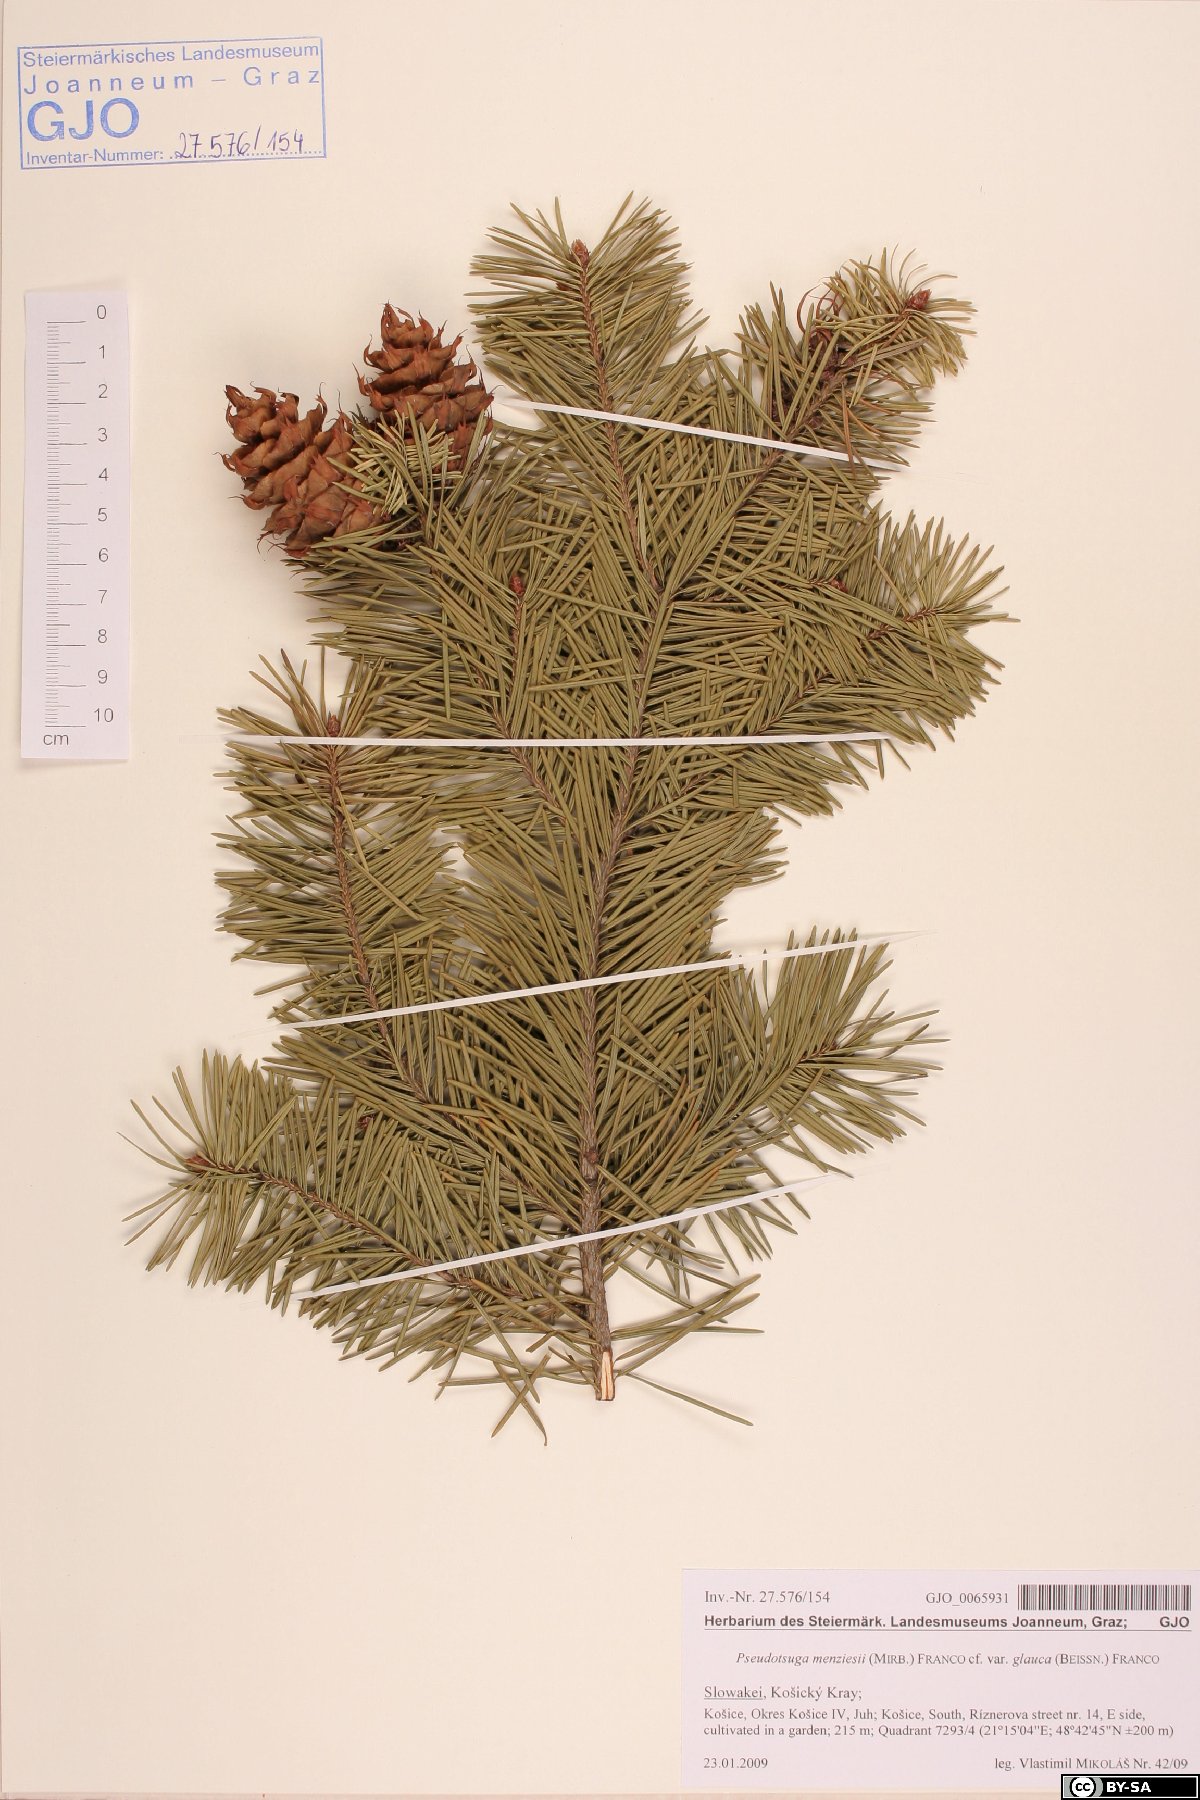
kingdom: Plantae
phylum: Tracheophyta
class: Pinopsida
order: Pinales
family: Pinaceae
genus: Pseudotsuga
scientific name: Pseudotsuga menziesii
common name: Douglas fir
